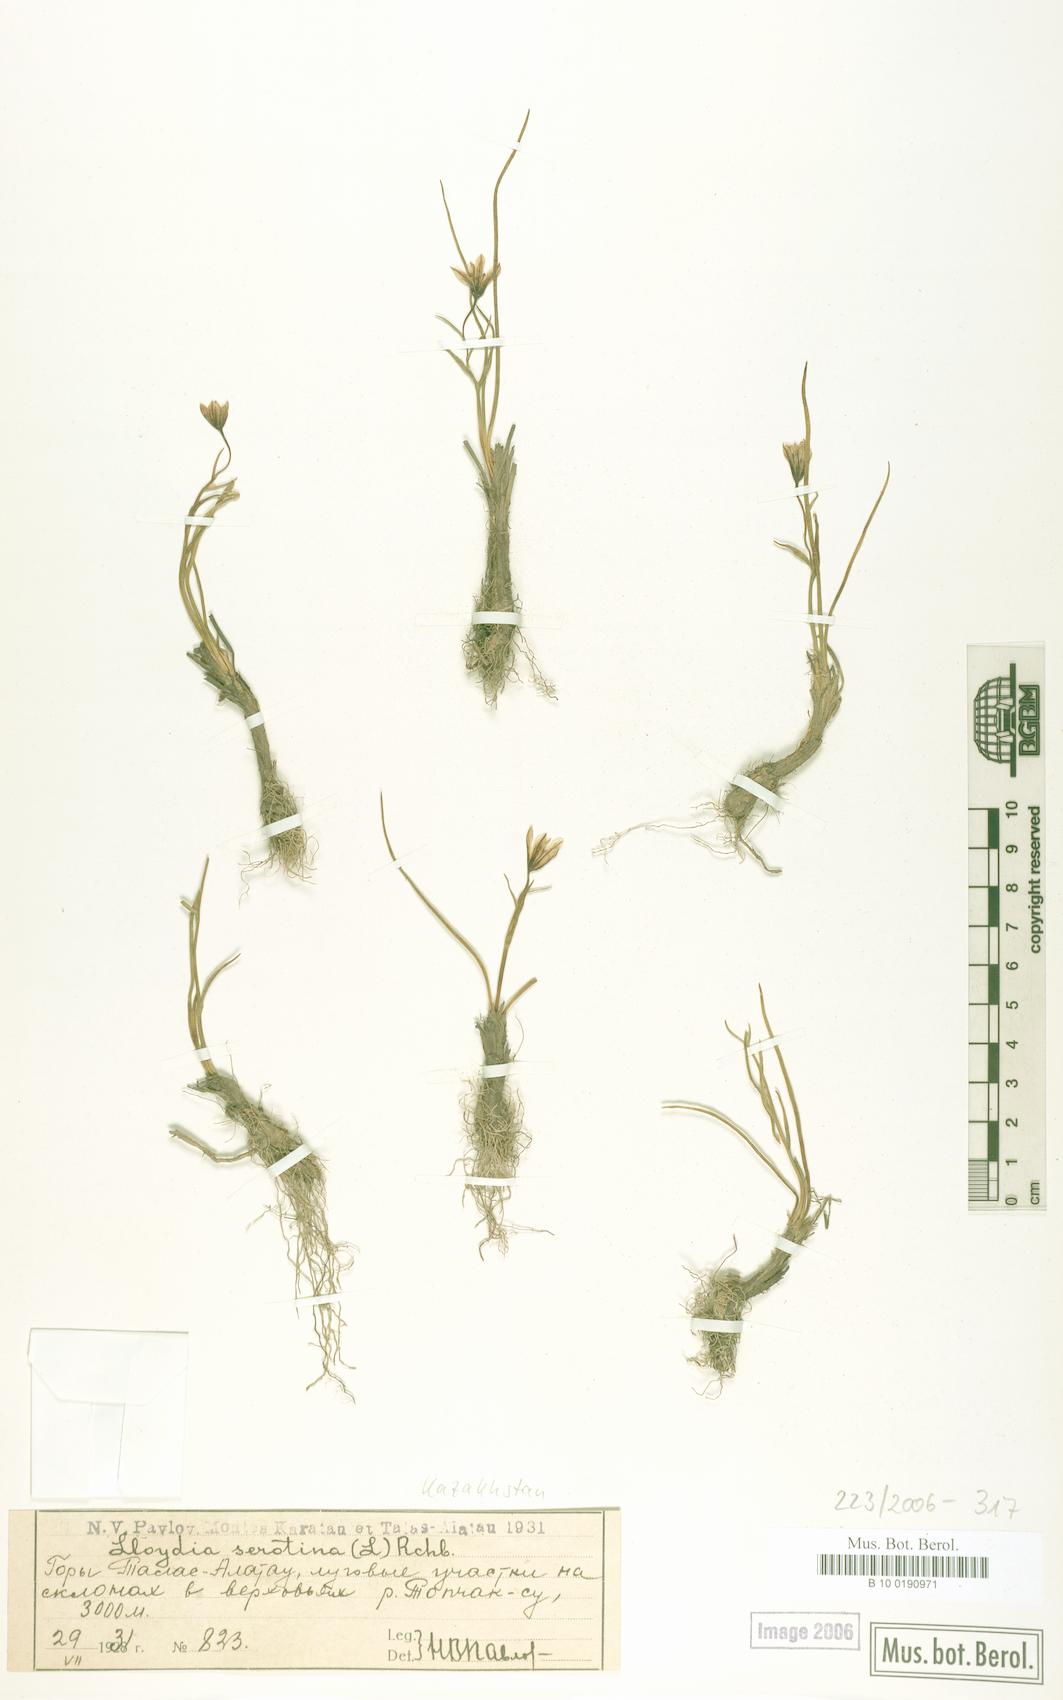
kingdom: Plantae
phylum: Tracheophyta
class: Liliopsida
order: Liliales
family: Liliaceae
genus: Gagea
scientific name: Gagea serotina
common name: Snowdon lily
